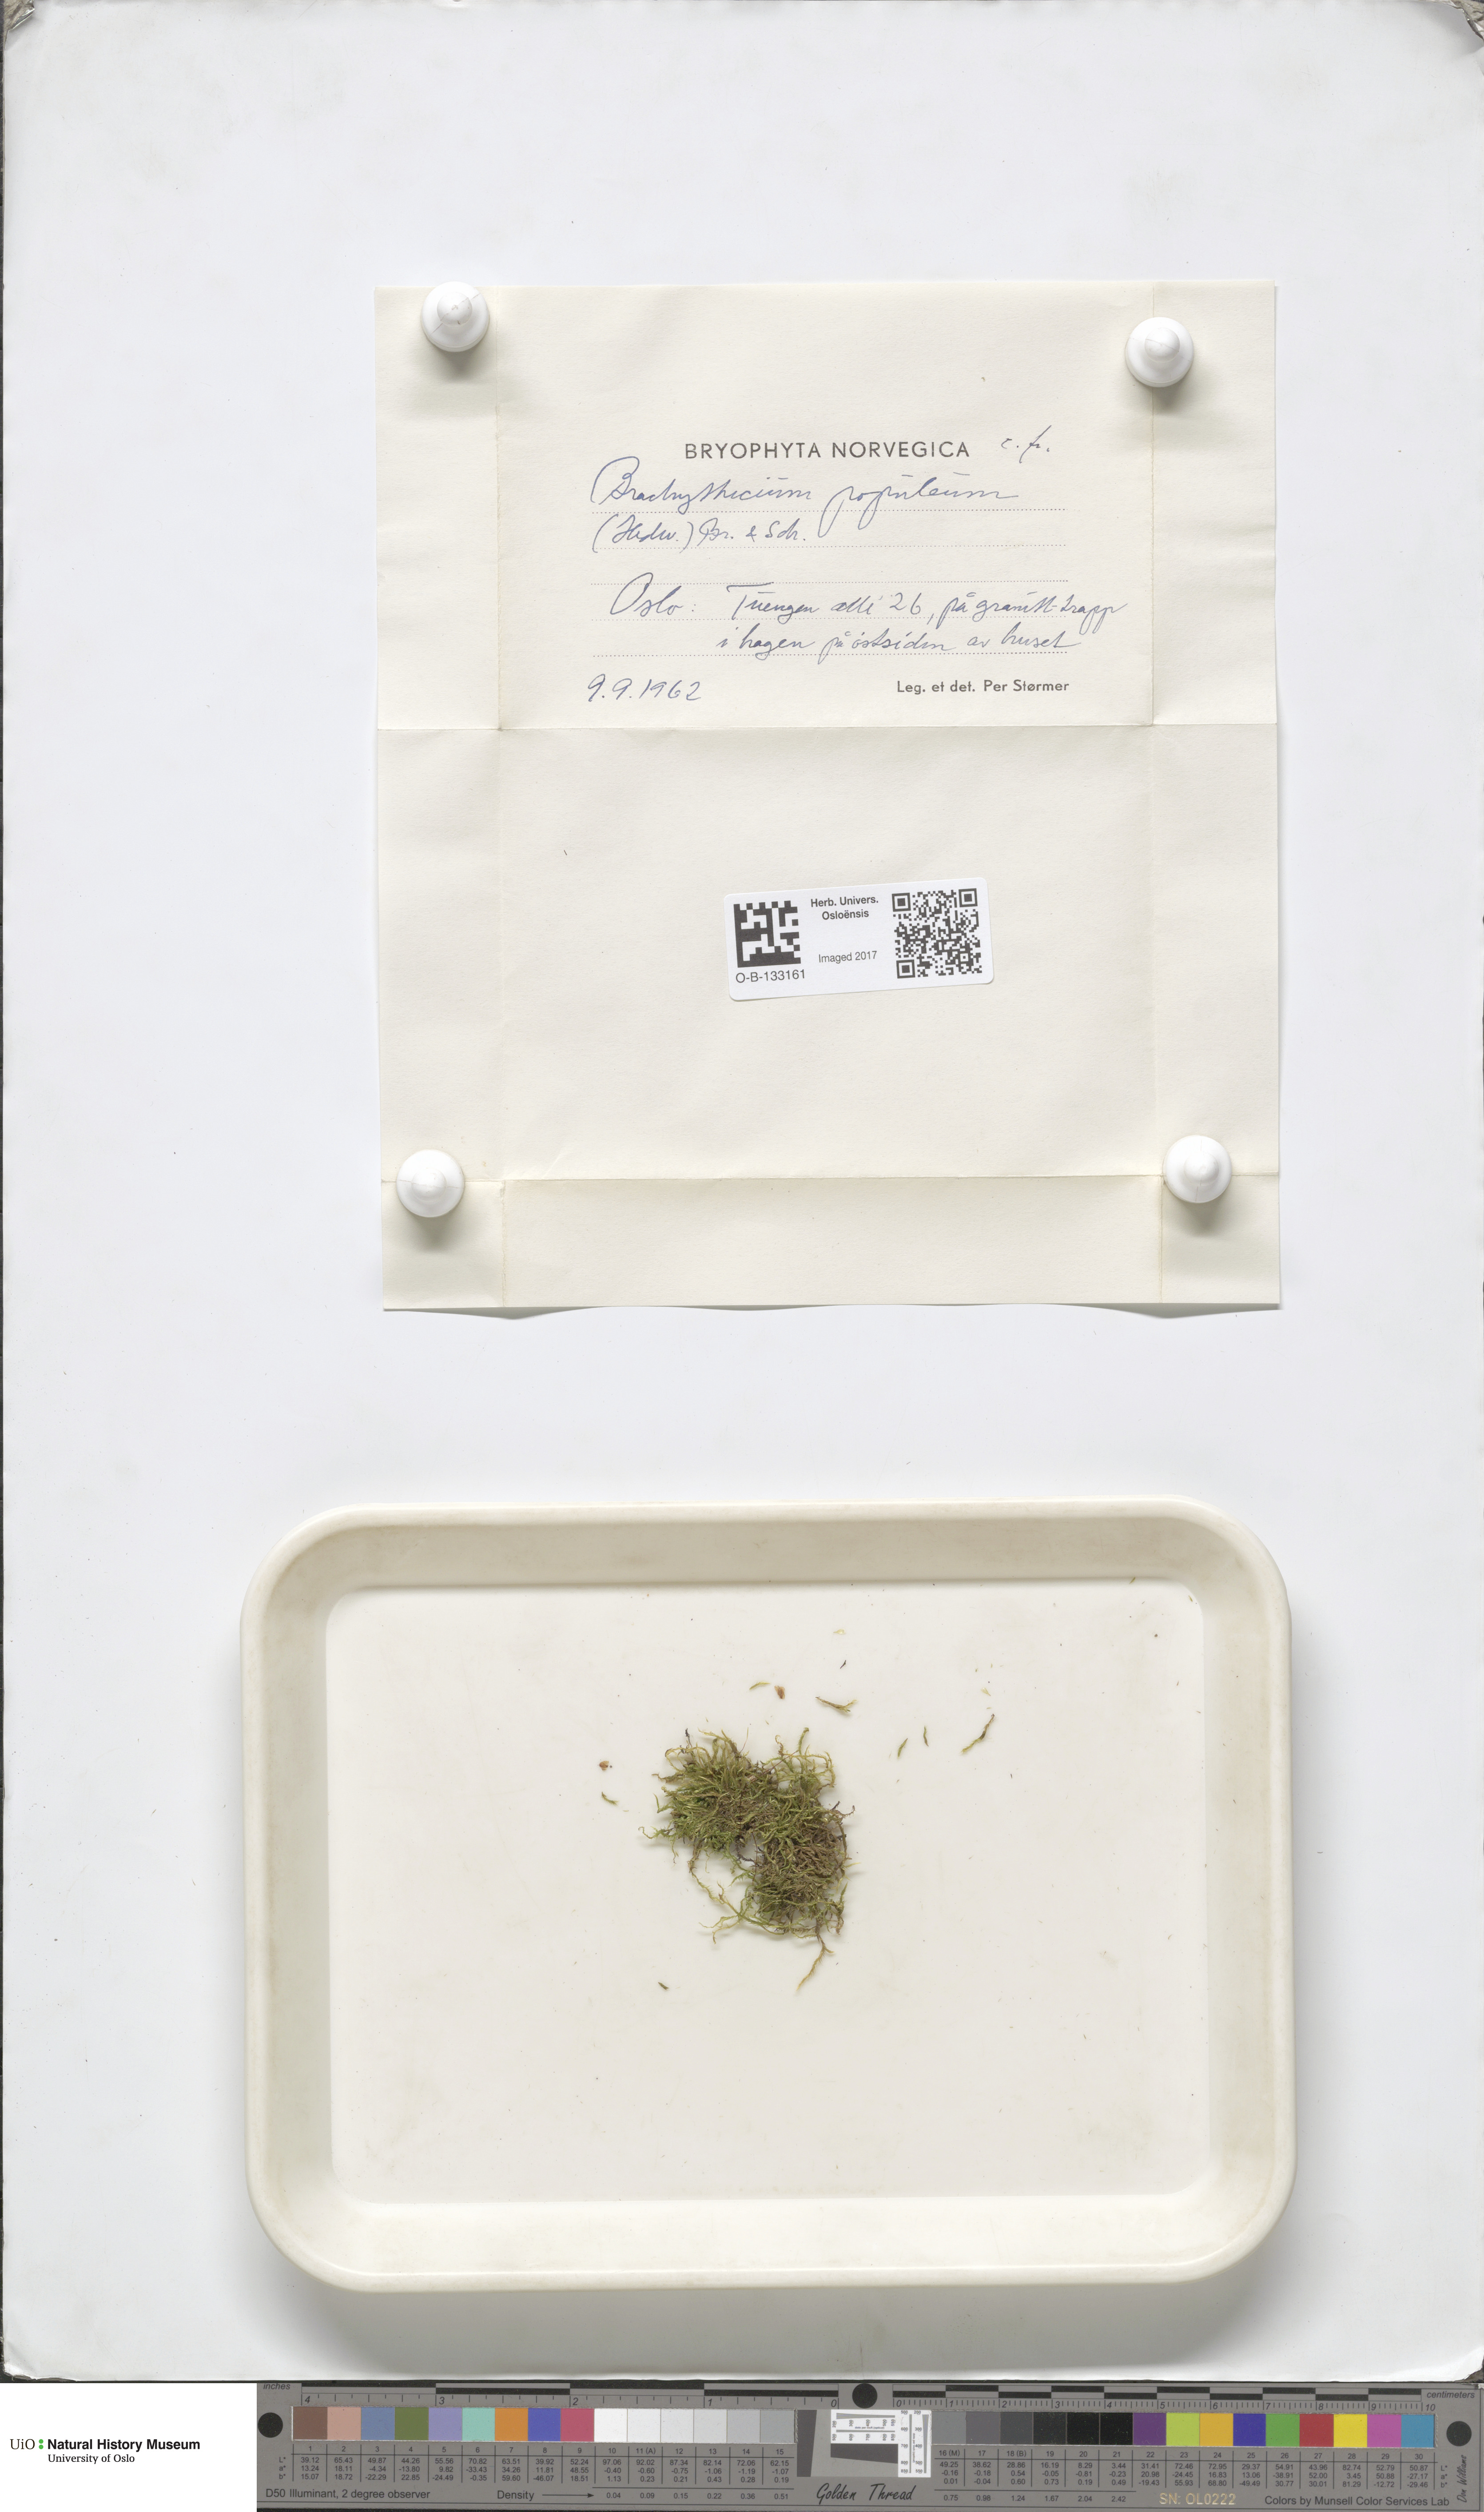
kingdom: Plantae
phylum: Bryophyta
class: Bryopsida
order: Hypnales
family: Brachytheciaceae
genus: Sciuro-hypnum
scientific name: Sciuro-hypnum plumosum
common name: Rusty feather-moss
